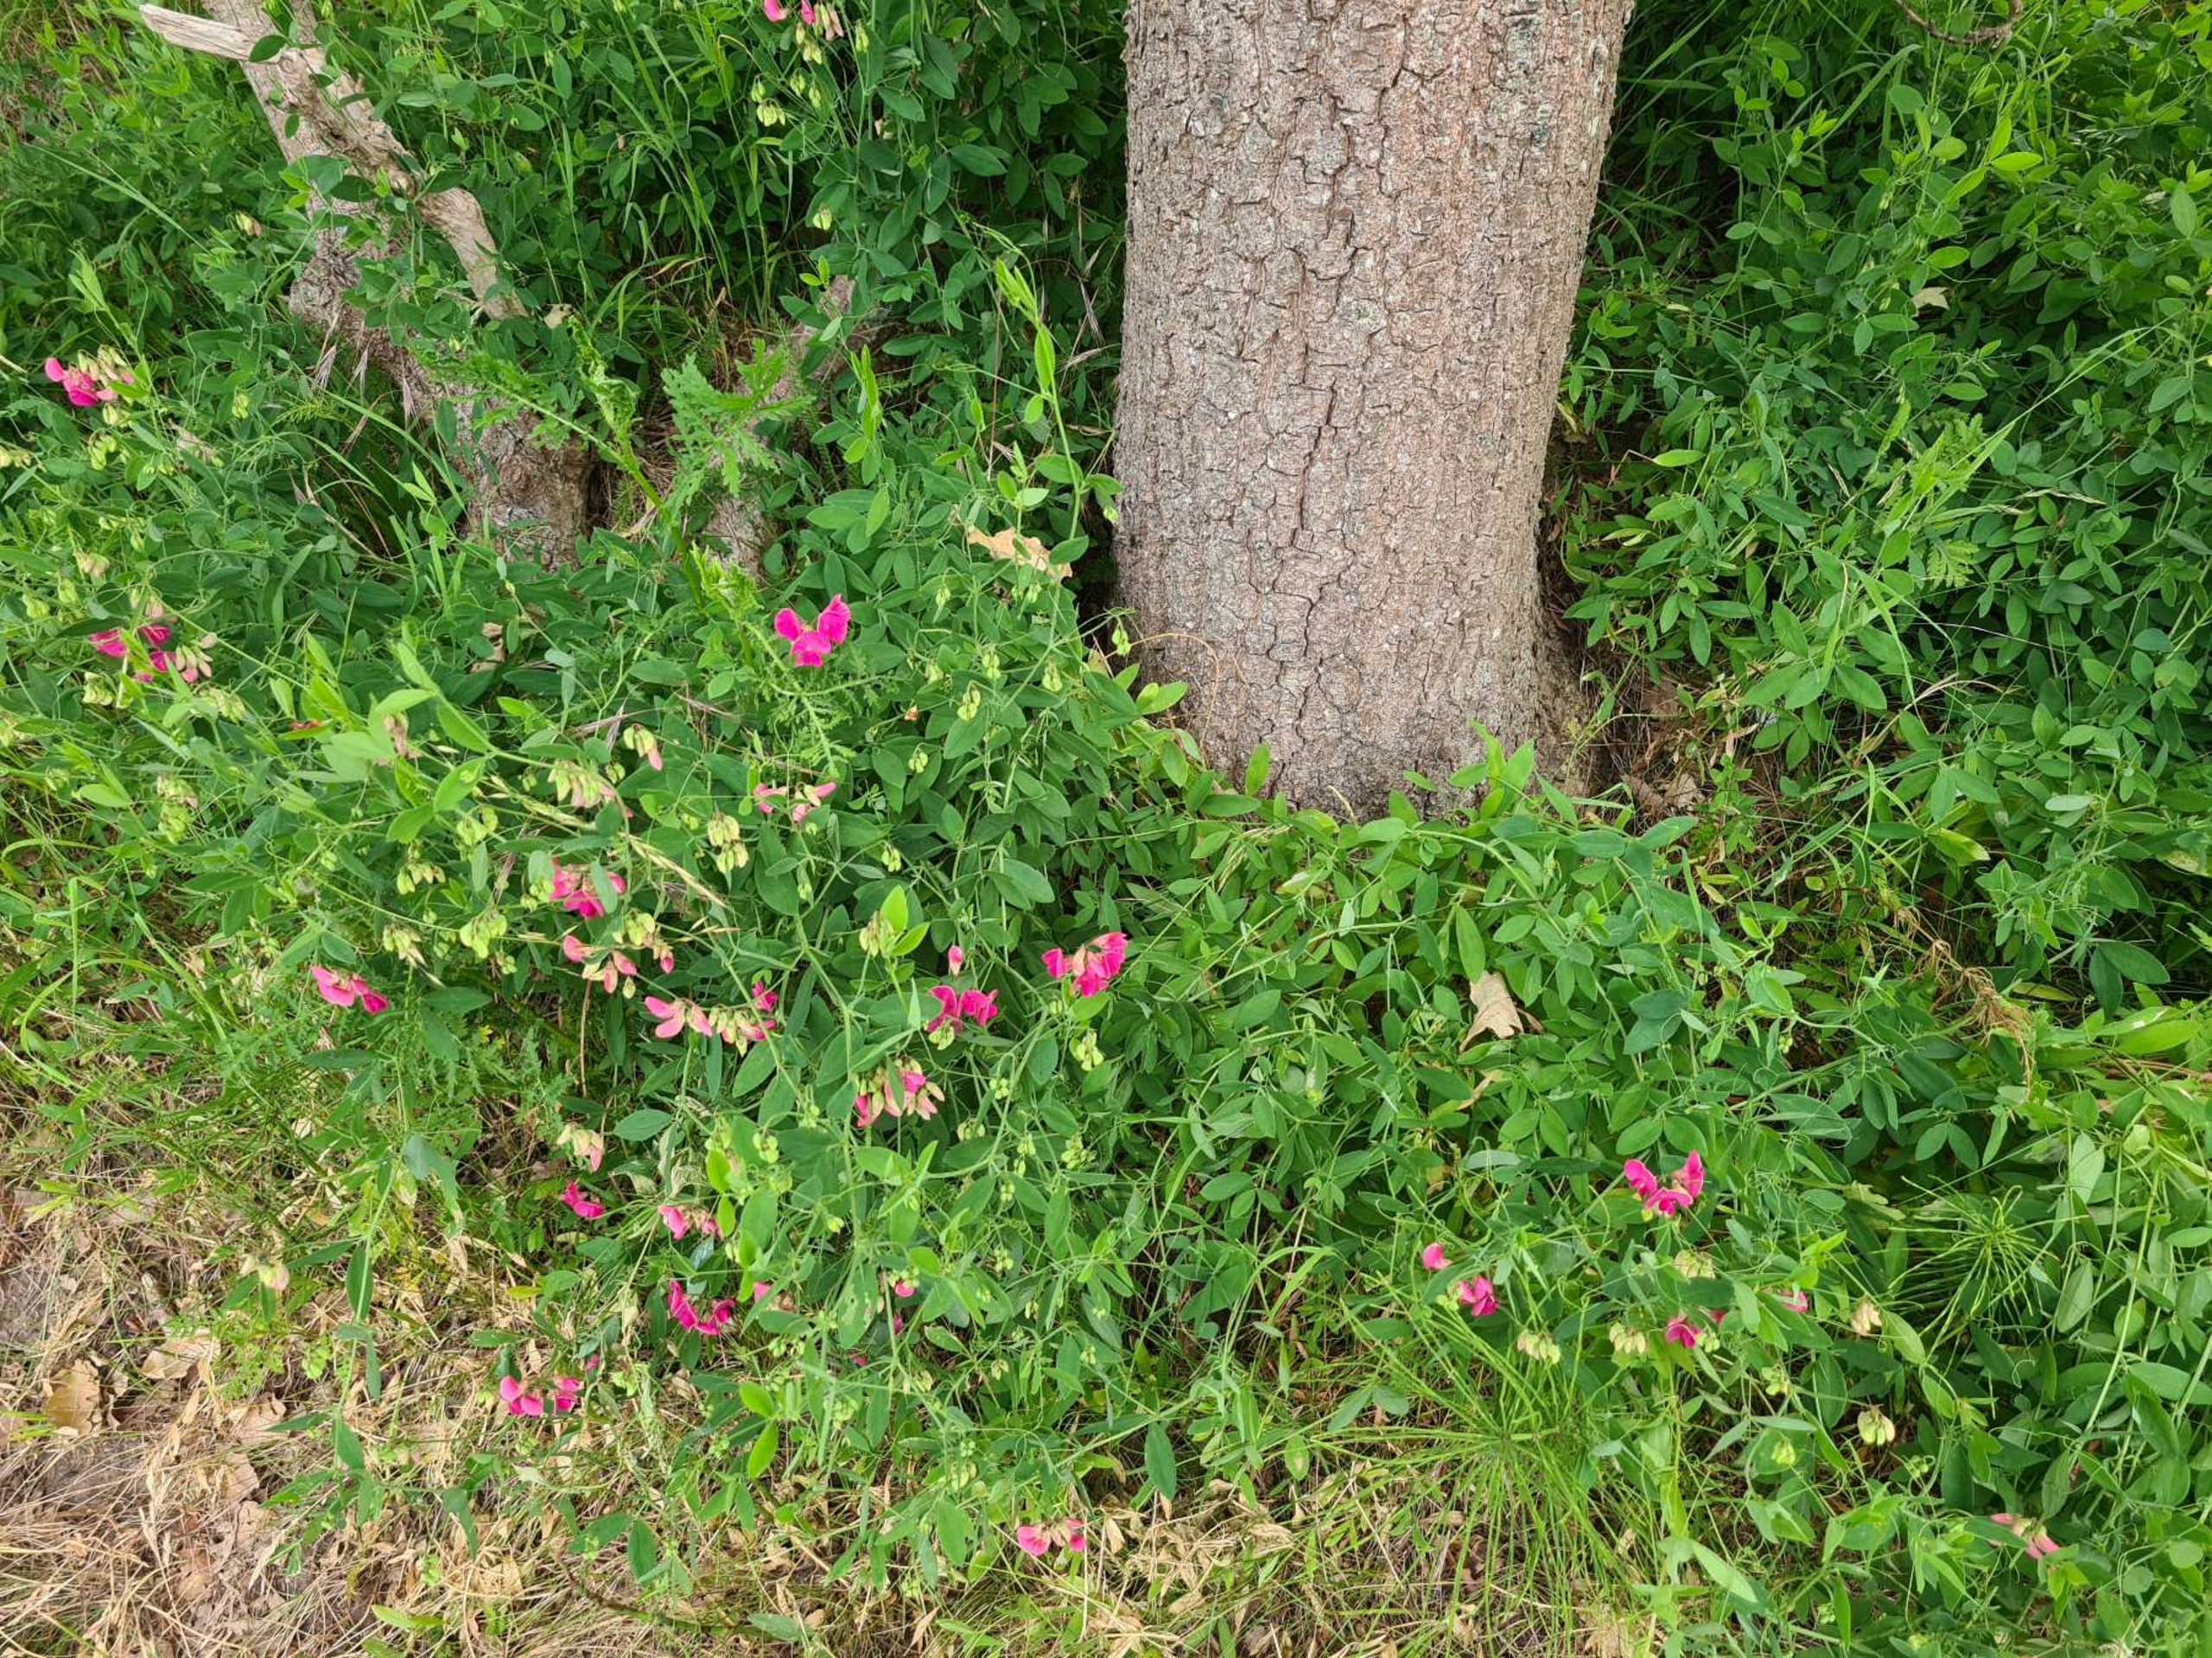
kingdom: Plantae
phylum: Tracheophyta
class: Magnoliopsida
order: Fabales
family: Fabaceae
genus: Lathyrus
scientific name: Lathyrus tuberosus
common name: Knold-fladbælg
